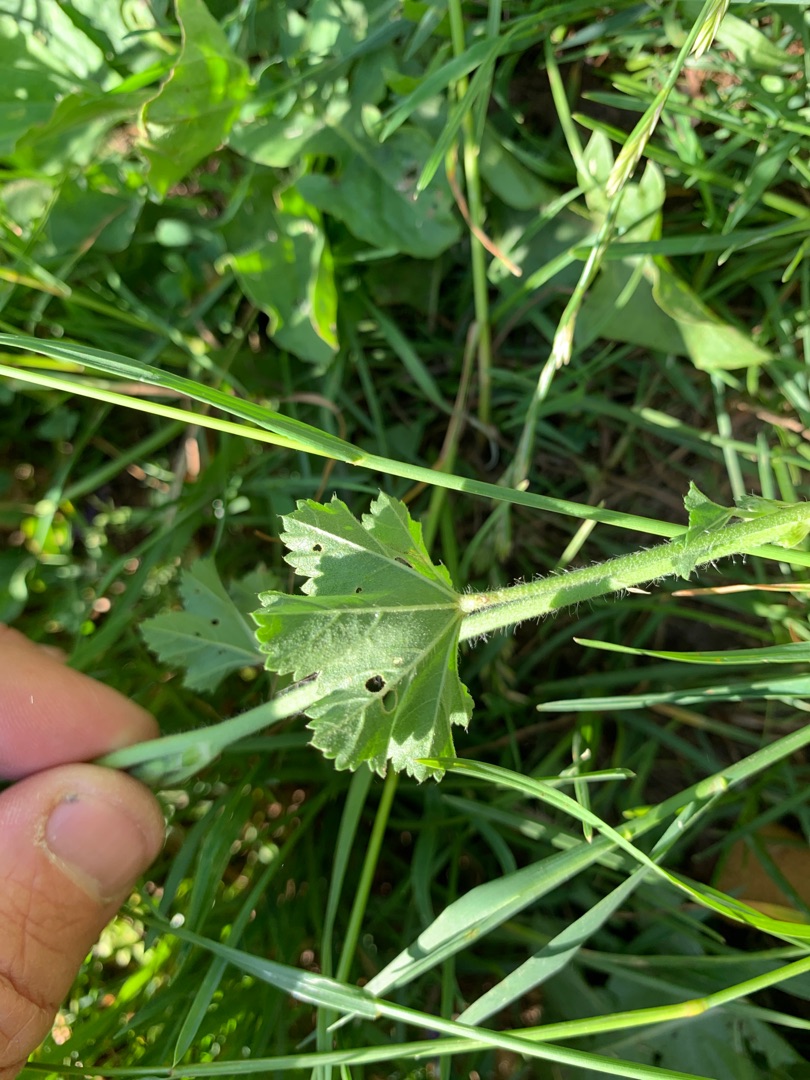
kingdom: Plantae
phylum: Tracheophyta
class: Magnoliopsida
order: Malvales
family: Malvaceae
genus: Malva
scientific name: Malva sylvestris
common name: Almindelig katost
